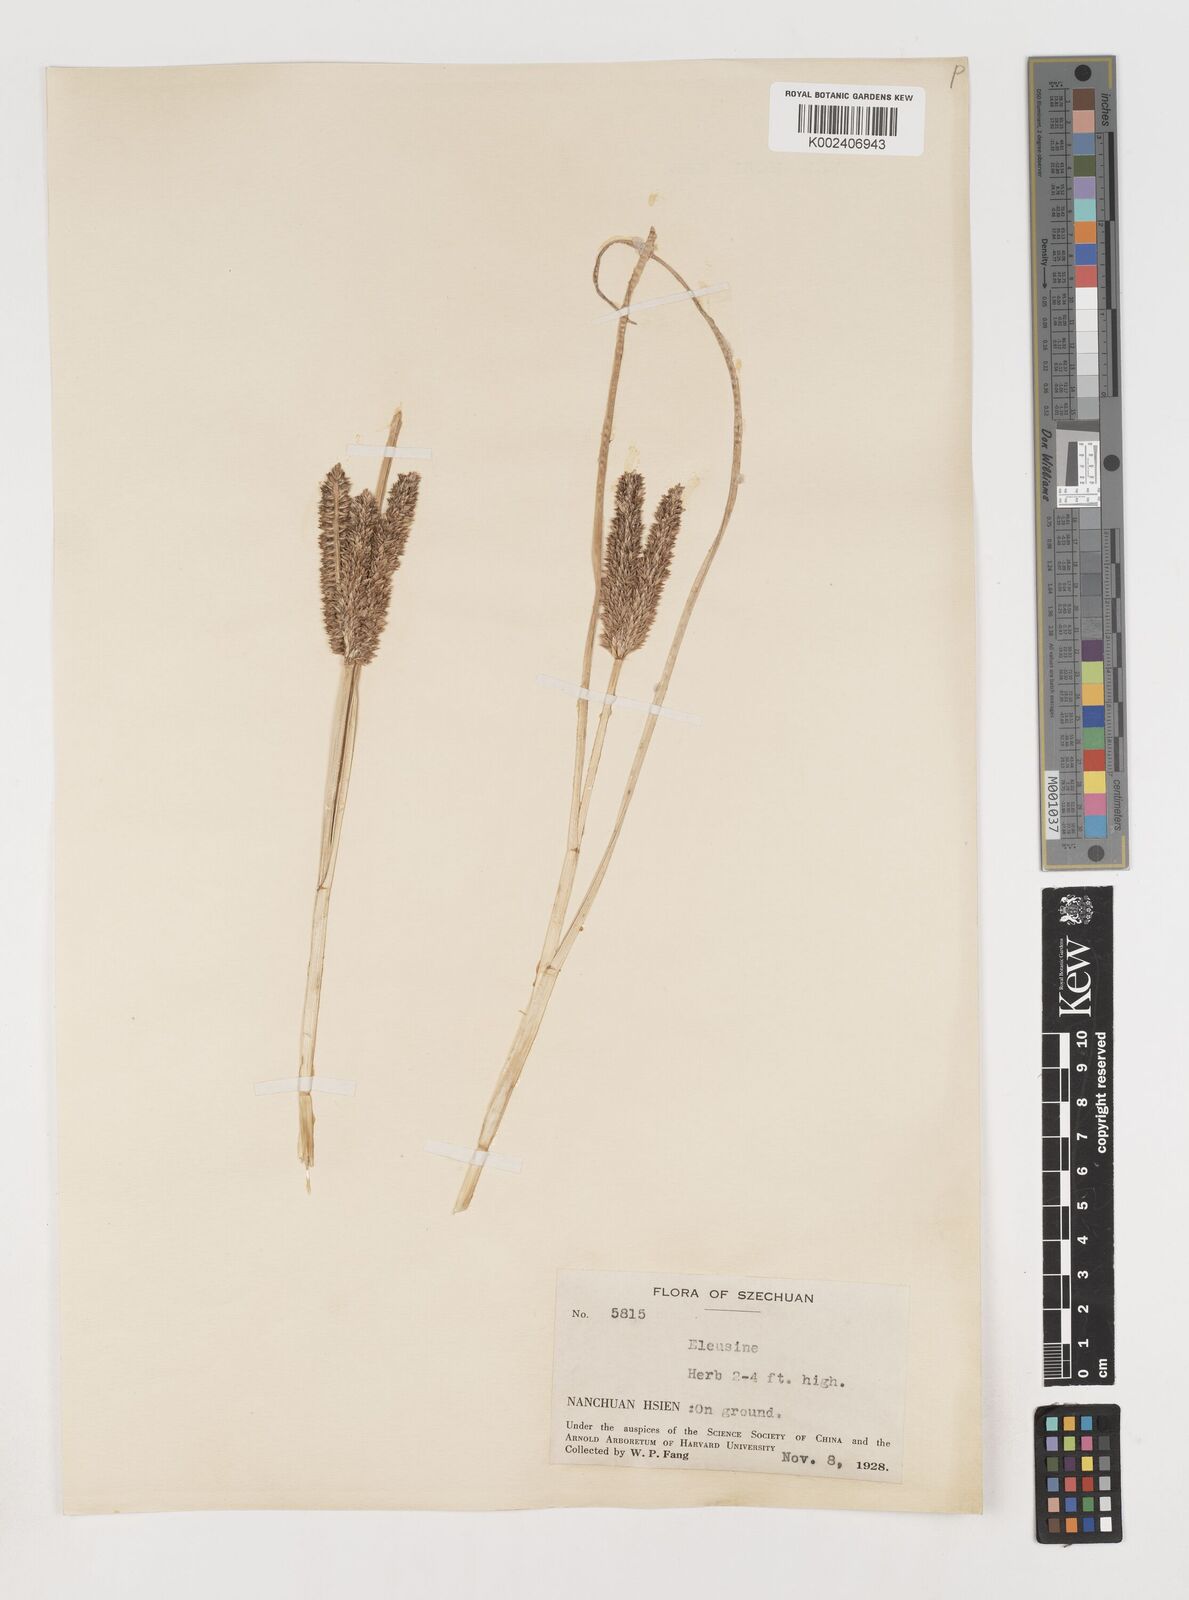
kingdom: Plantae
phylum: Tracheophyta
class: Liliopsida
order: Poales
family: Poaceae
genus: Eleusine
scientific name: Eleusine coracana
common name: Finger millet
